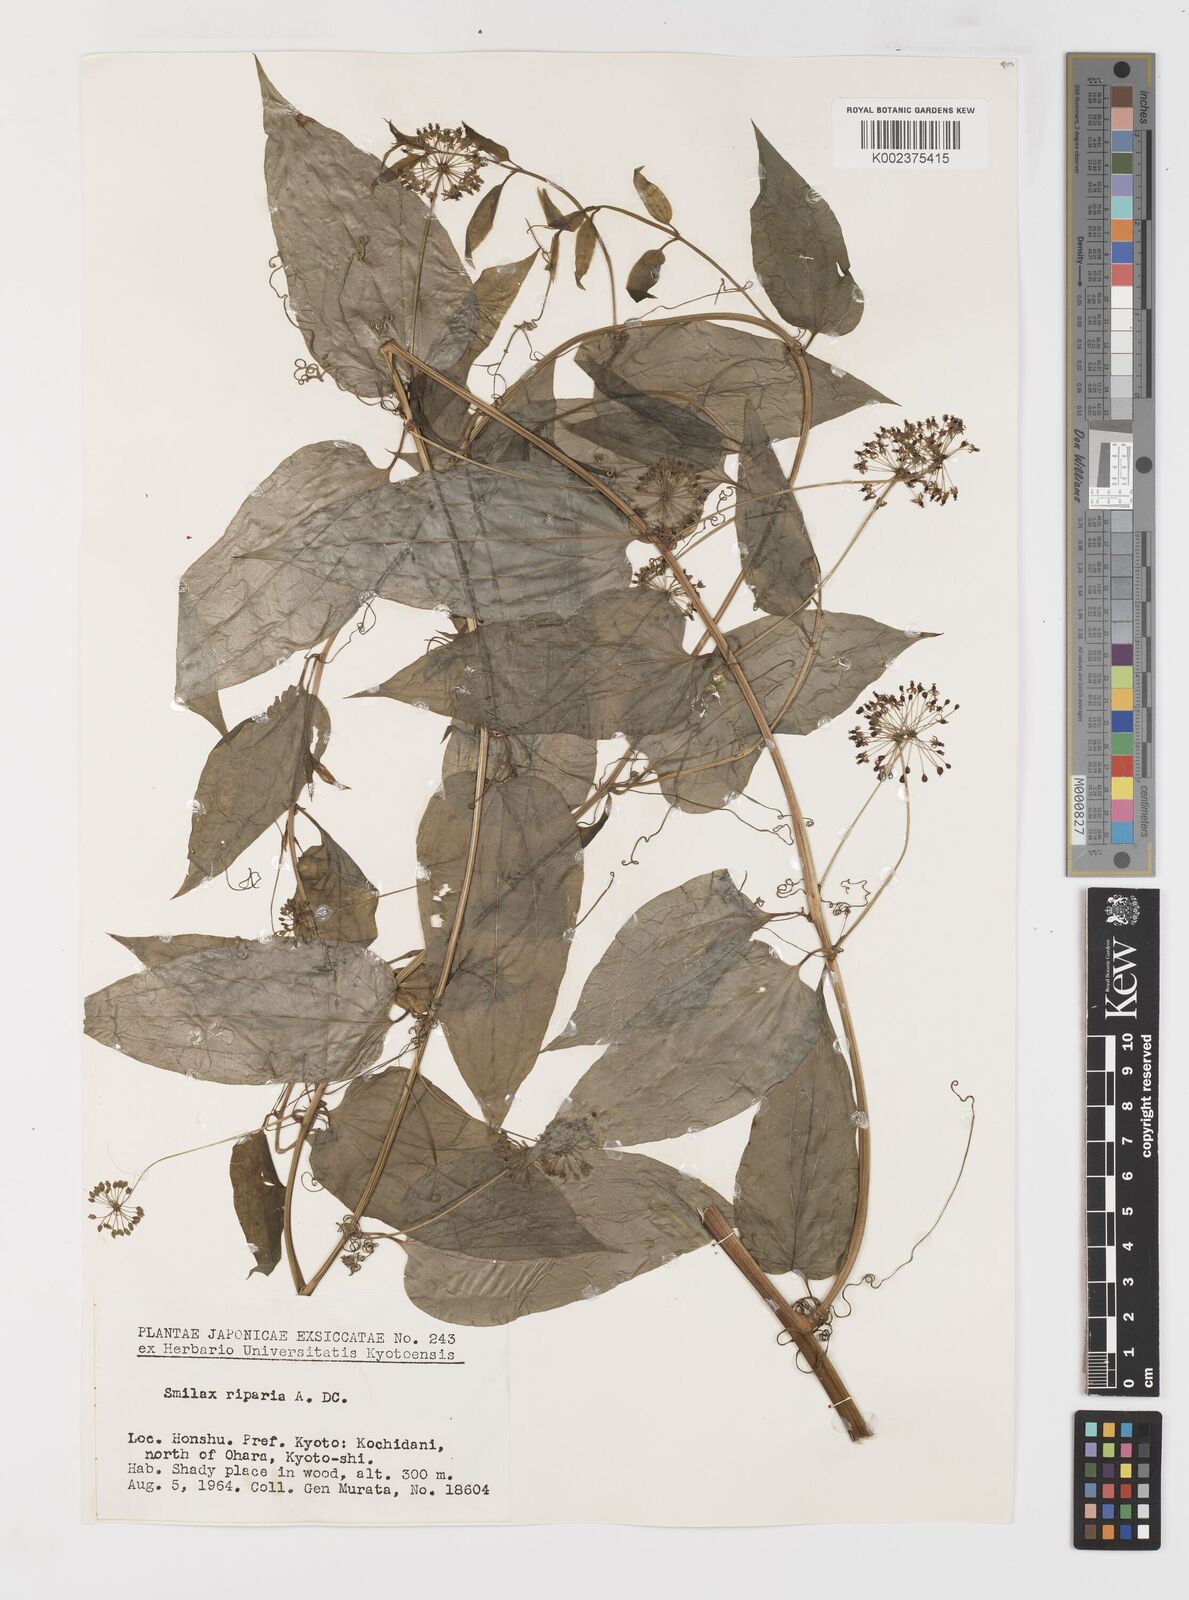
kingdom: Plantae
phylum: Tracheophyta
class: Liliopsida
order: Liliales
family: Smilacaceae
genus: Smilax
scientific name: Smilax riparia
